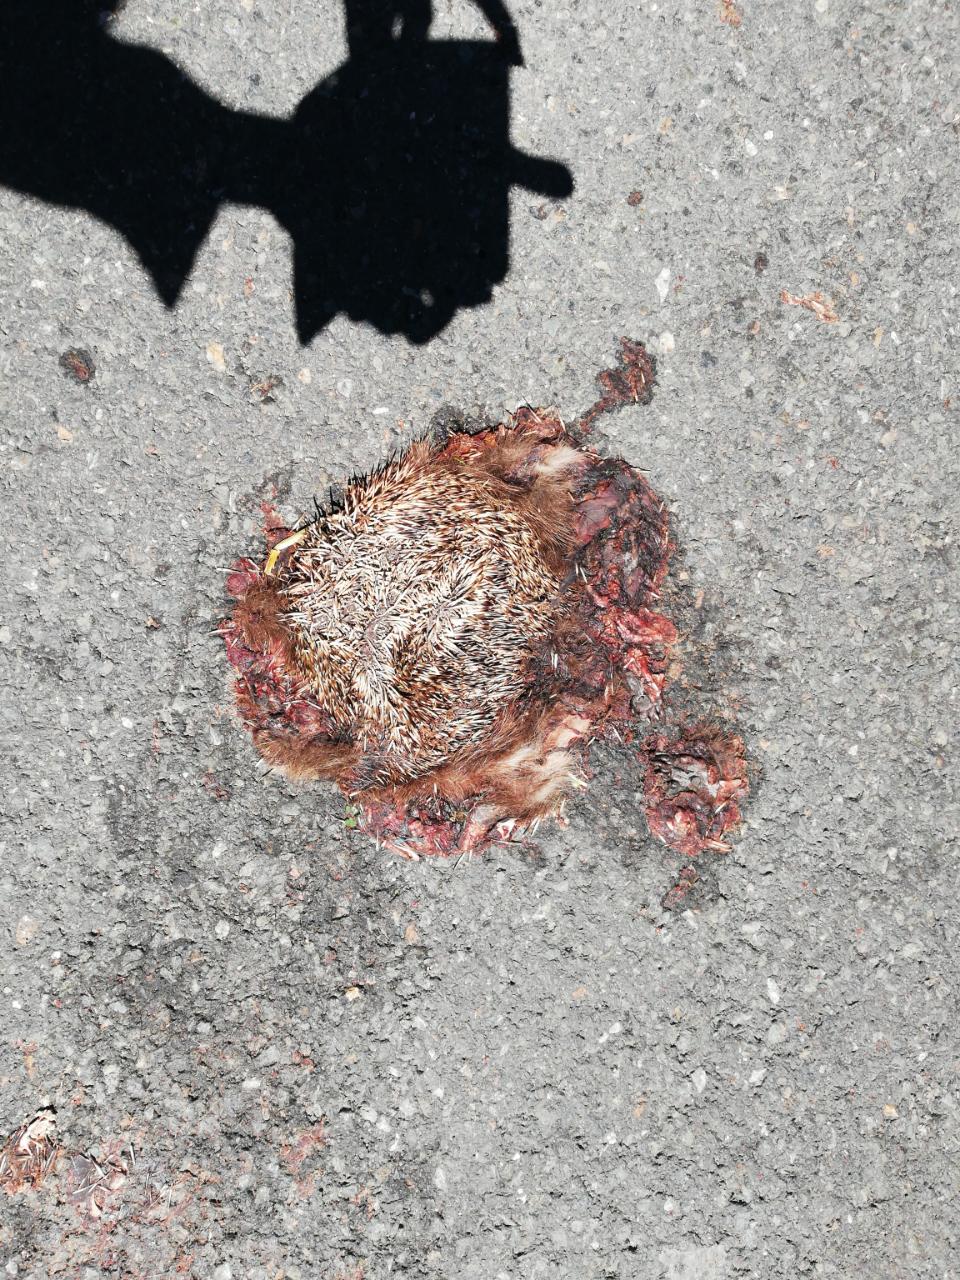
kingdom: Animalia
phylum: Chordata
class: Mammalia
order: Erinaceomorpha
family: Erinaceidae
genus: Erinaceus
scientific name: Erinaceus
